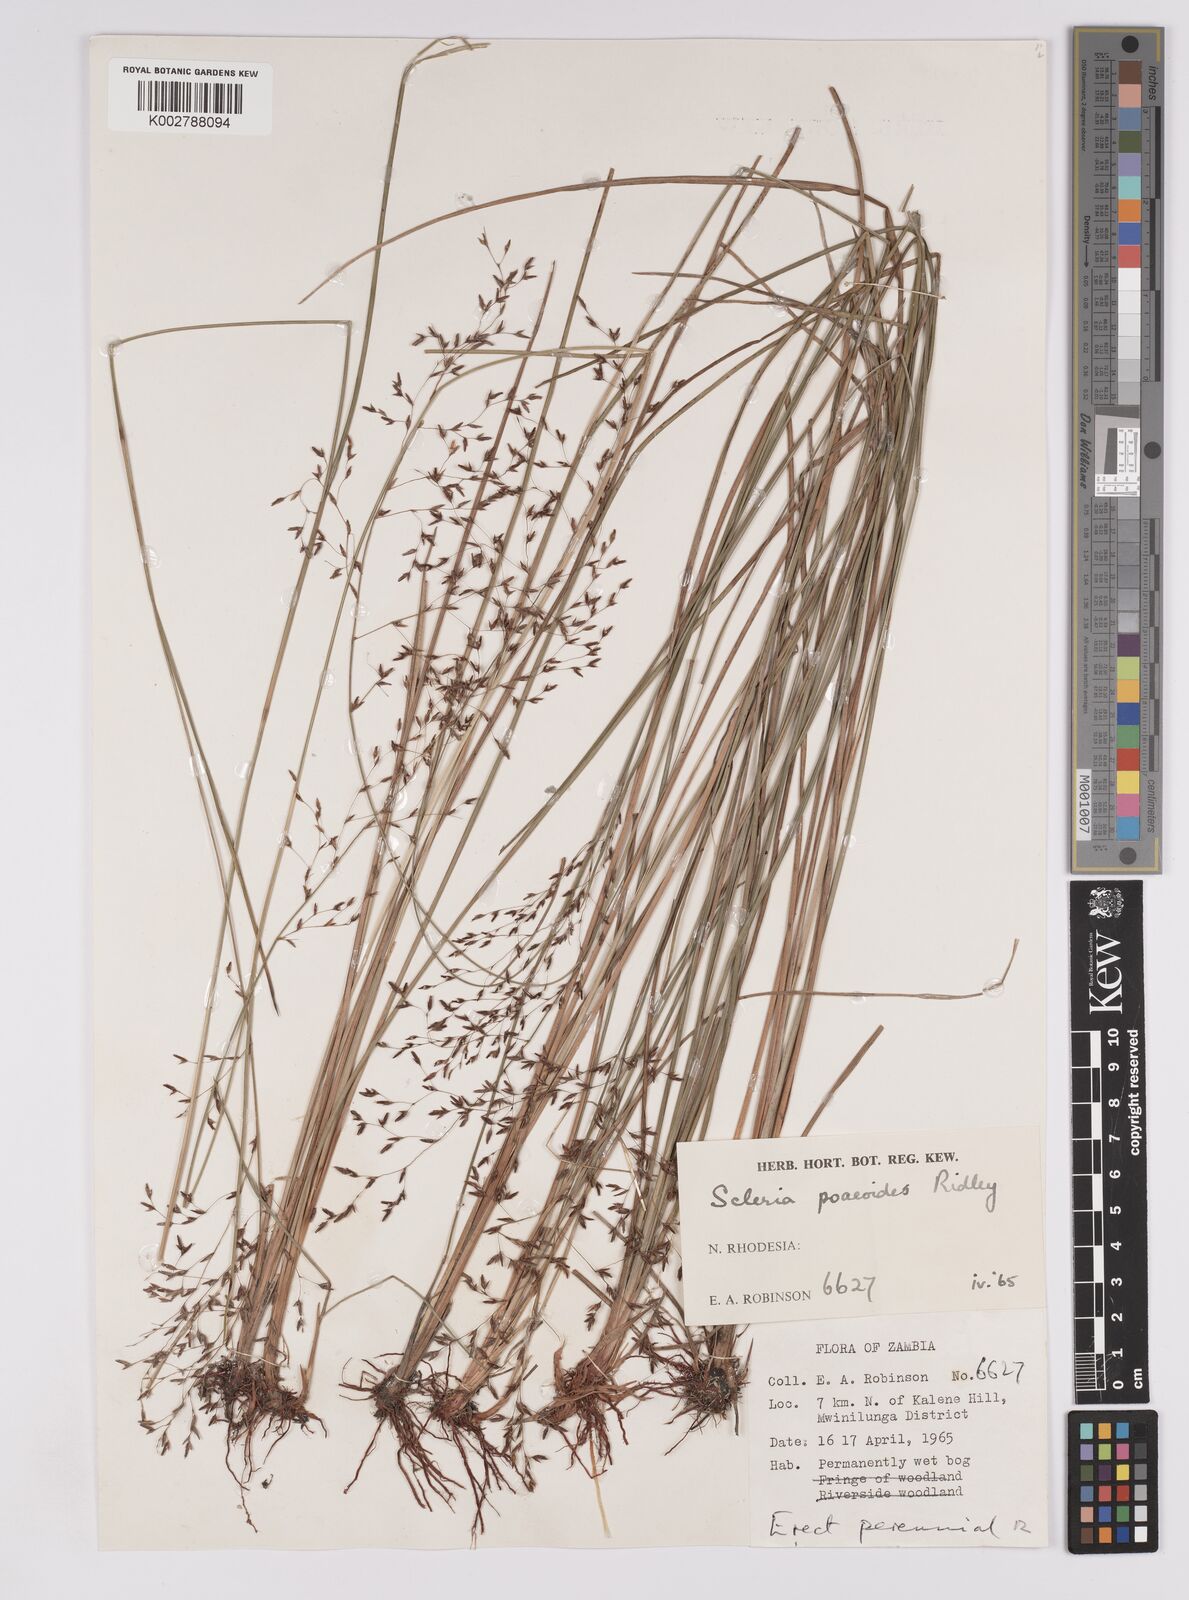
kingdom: Plantae
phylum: Tracheophyta
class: Liliopsida
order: Poales
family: Cyperaceae
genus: Scleria
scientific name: Scleria pooides
